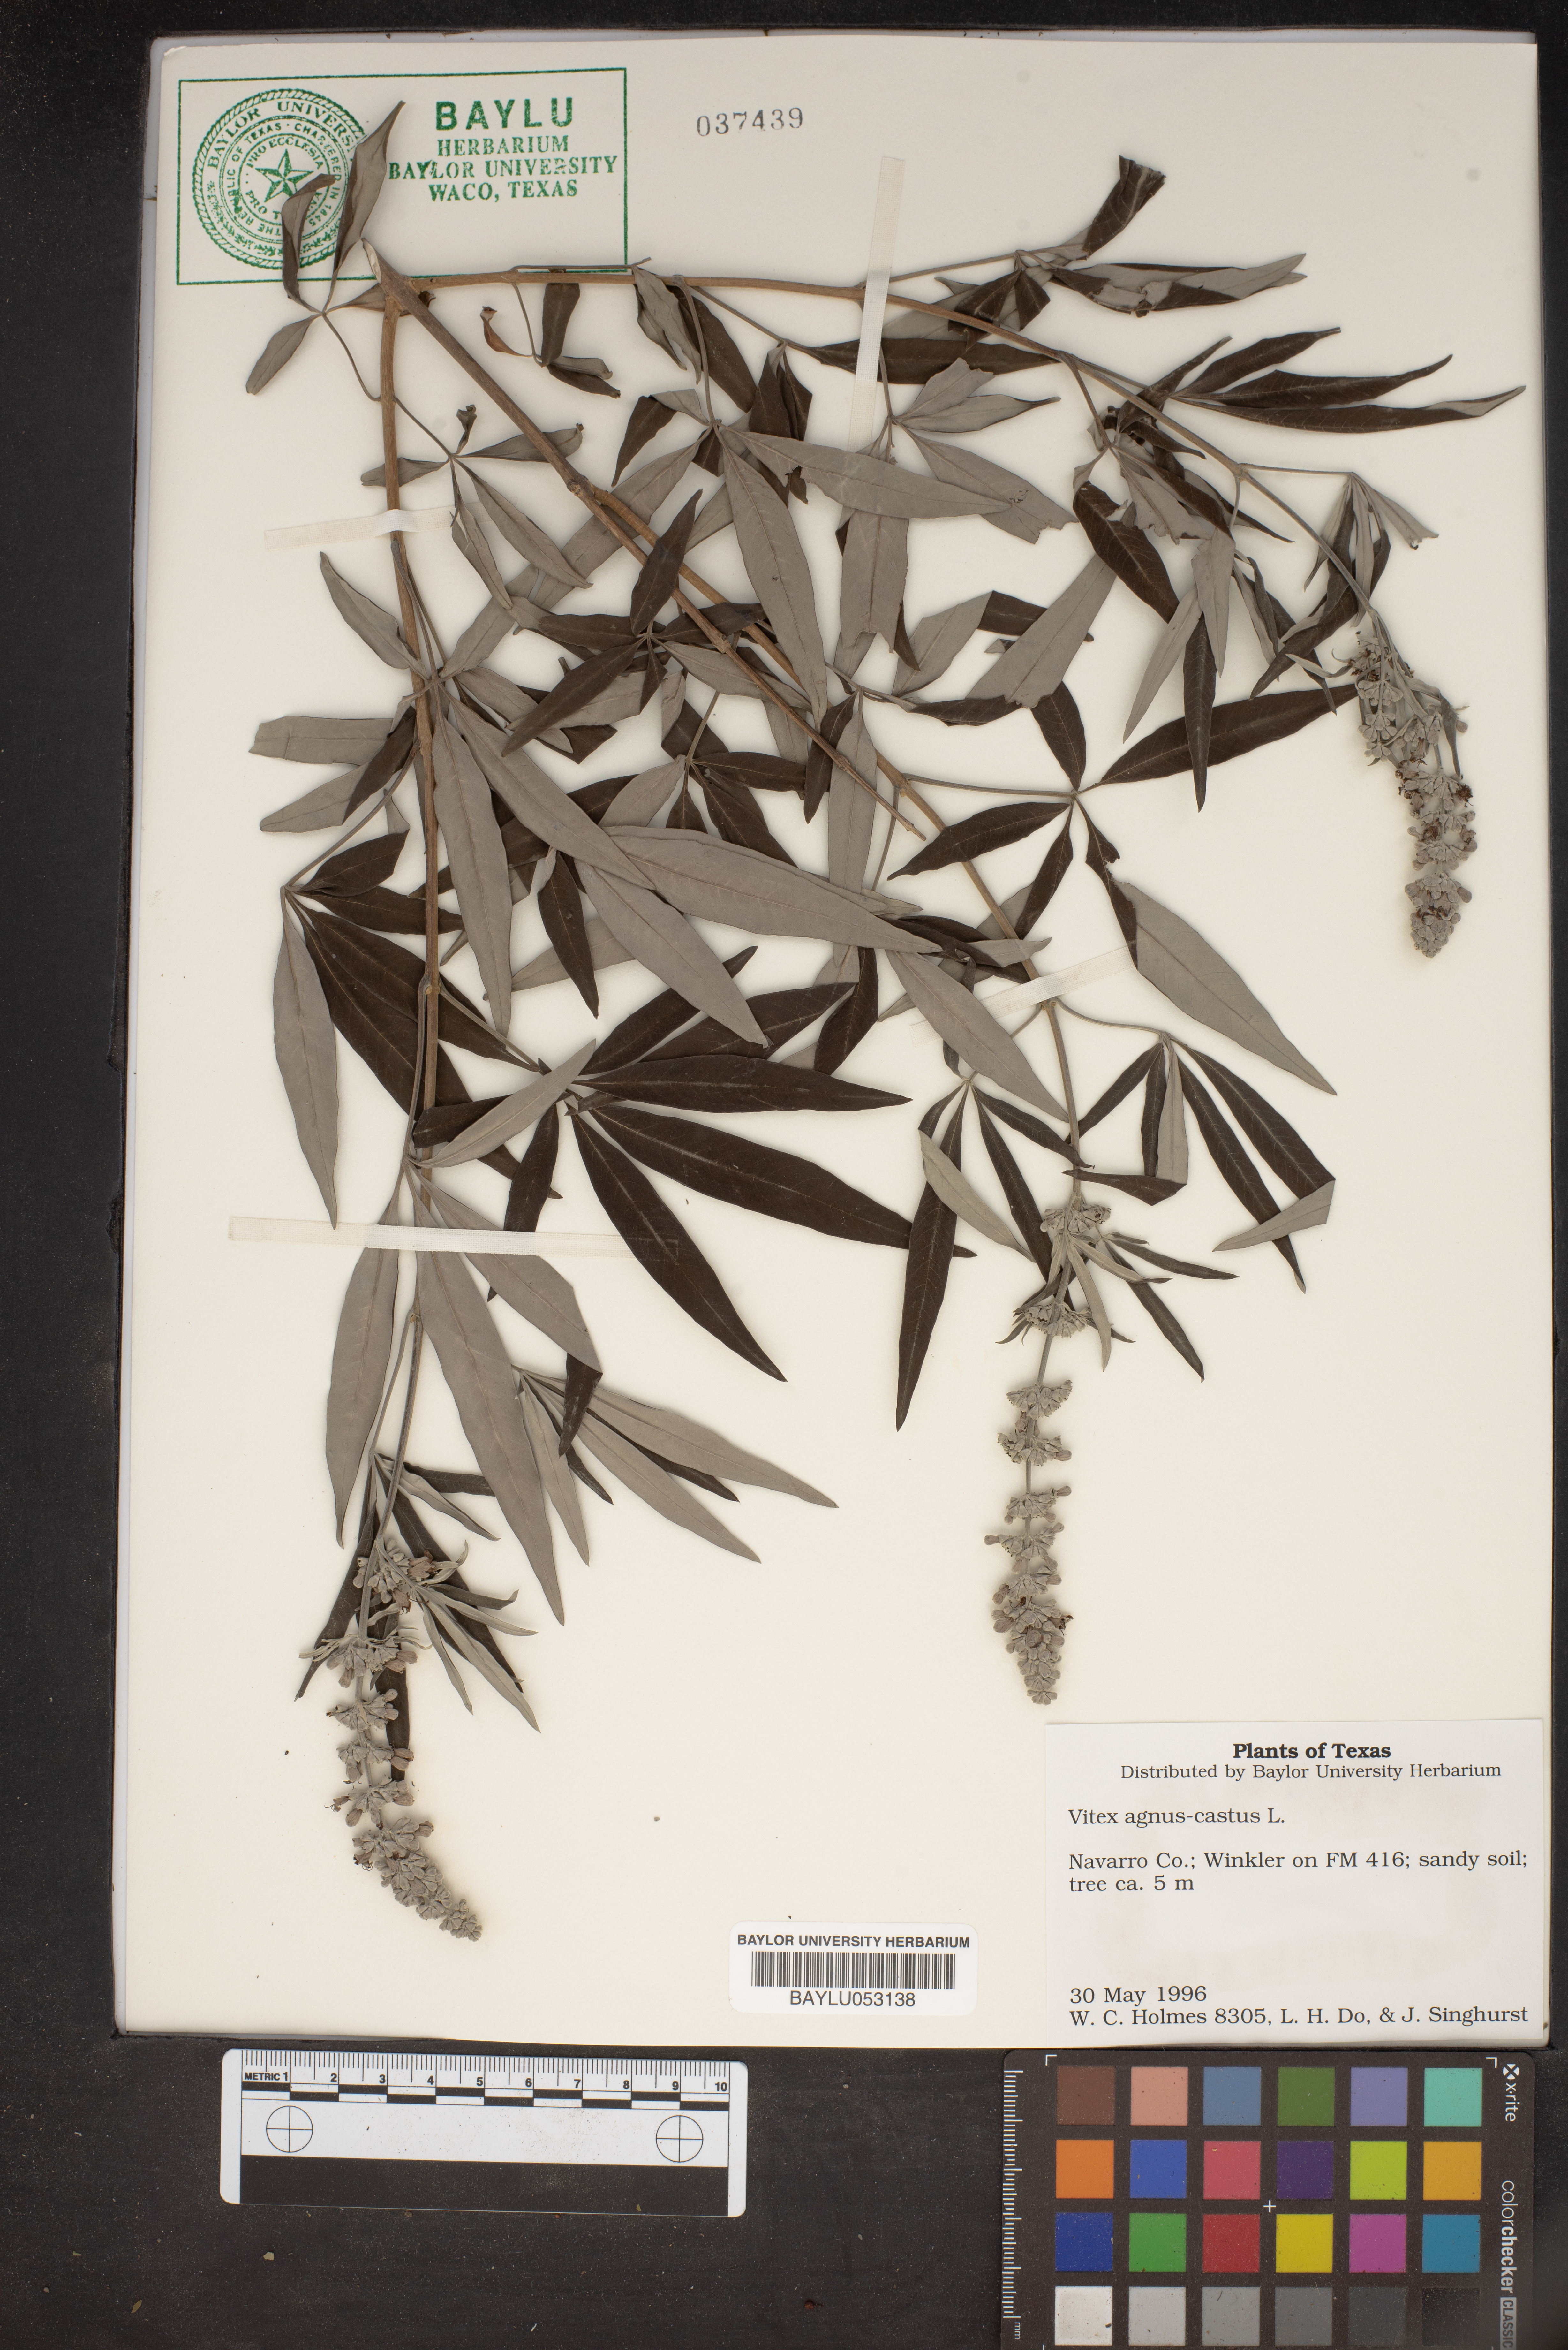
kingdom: Plantae
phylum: Tracheophyta
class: Magnoliopsida
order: Lamiales
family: Lamiaceae
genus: Vitex
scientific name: Vitex agnus-castus
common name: Chasteberry
